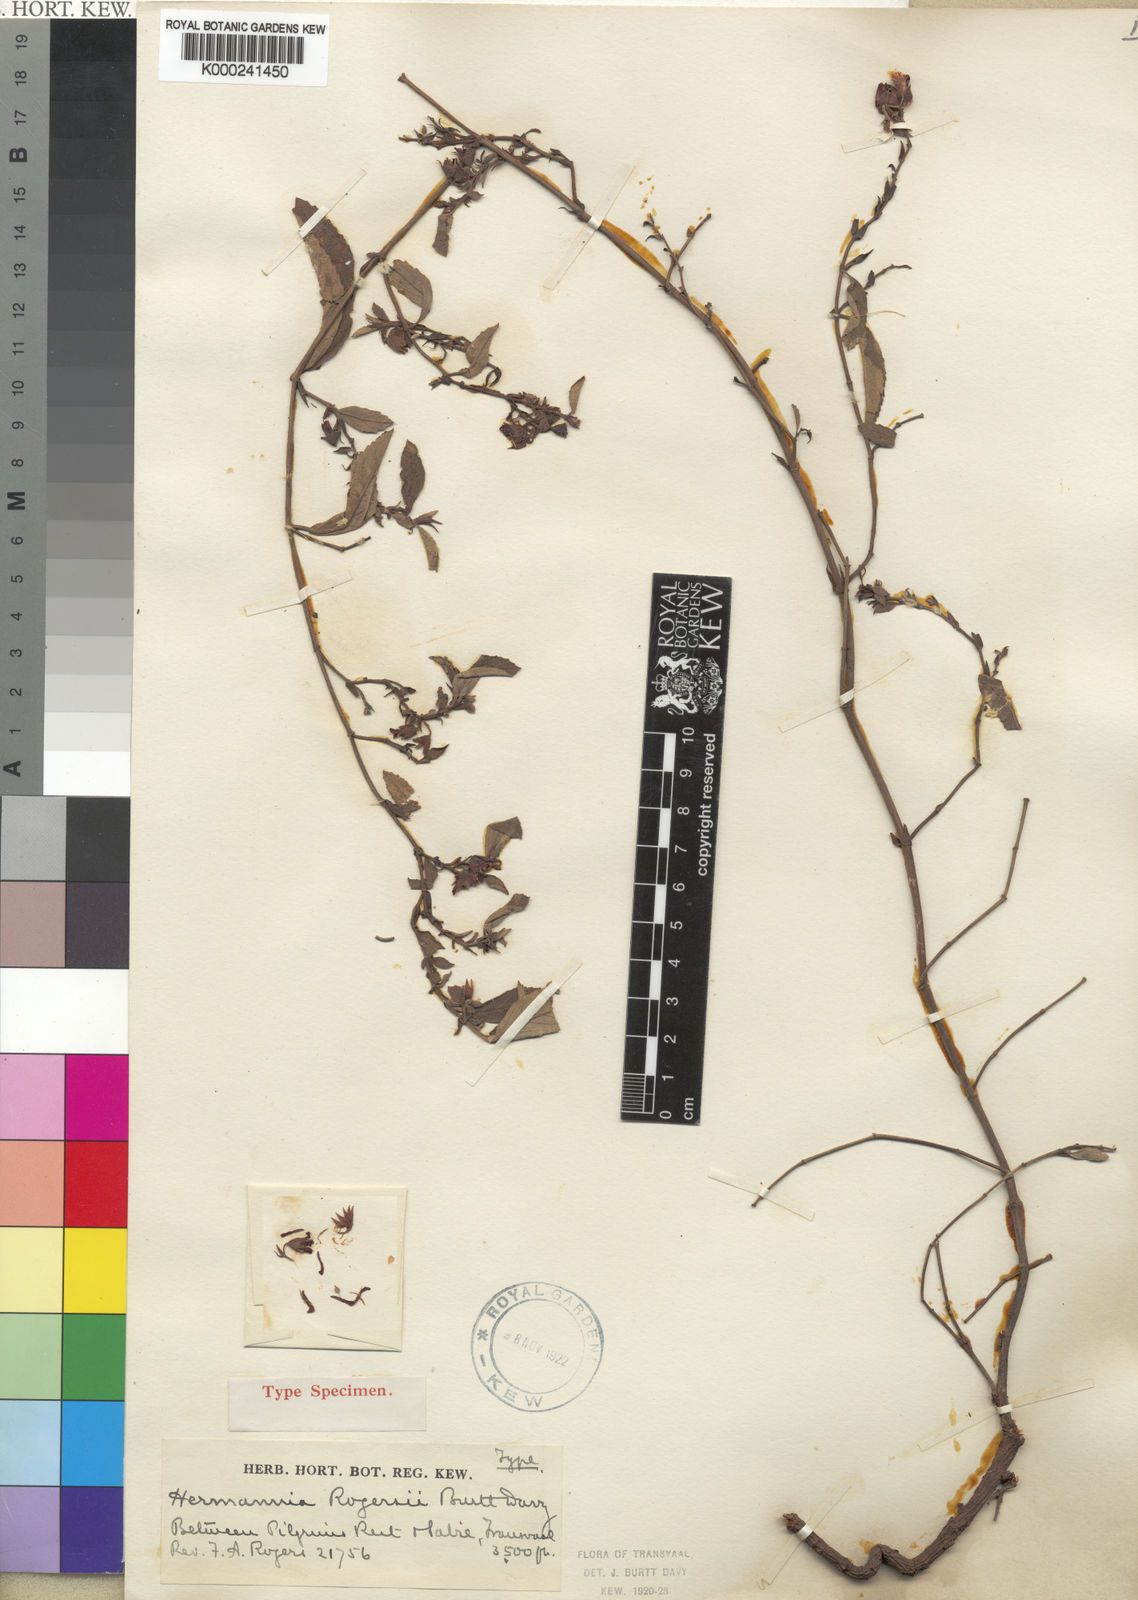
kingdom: Plantae
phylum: Tracheophyta
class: Magnoliopsida
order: Malvales
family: Malvaceae
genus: Hermannia
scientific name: Hermannia montana
